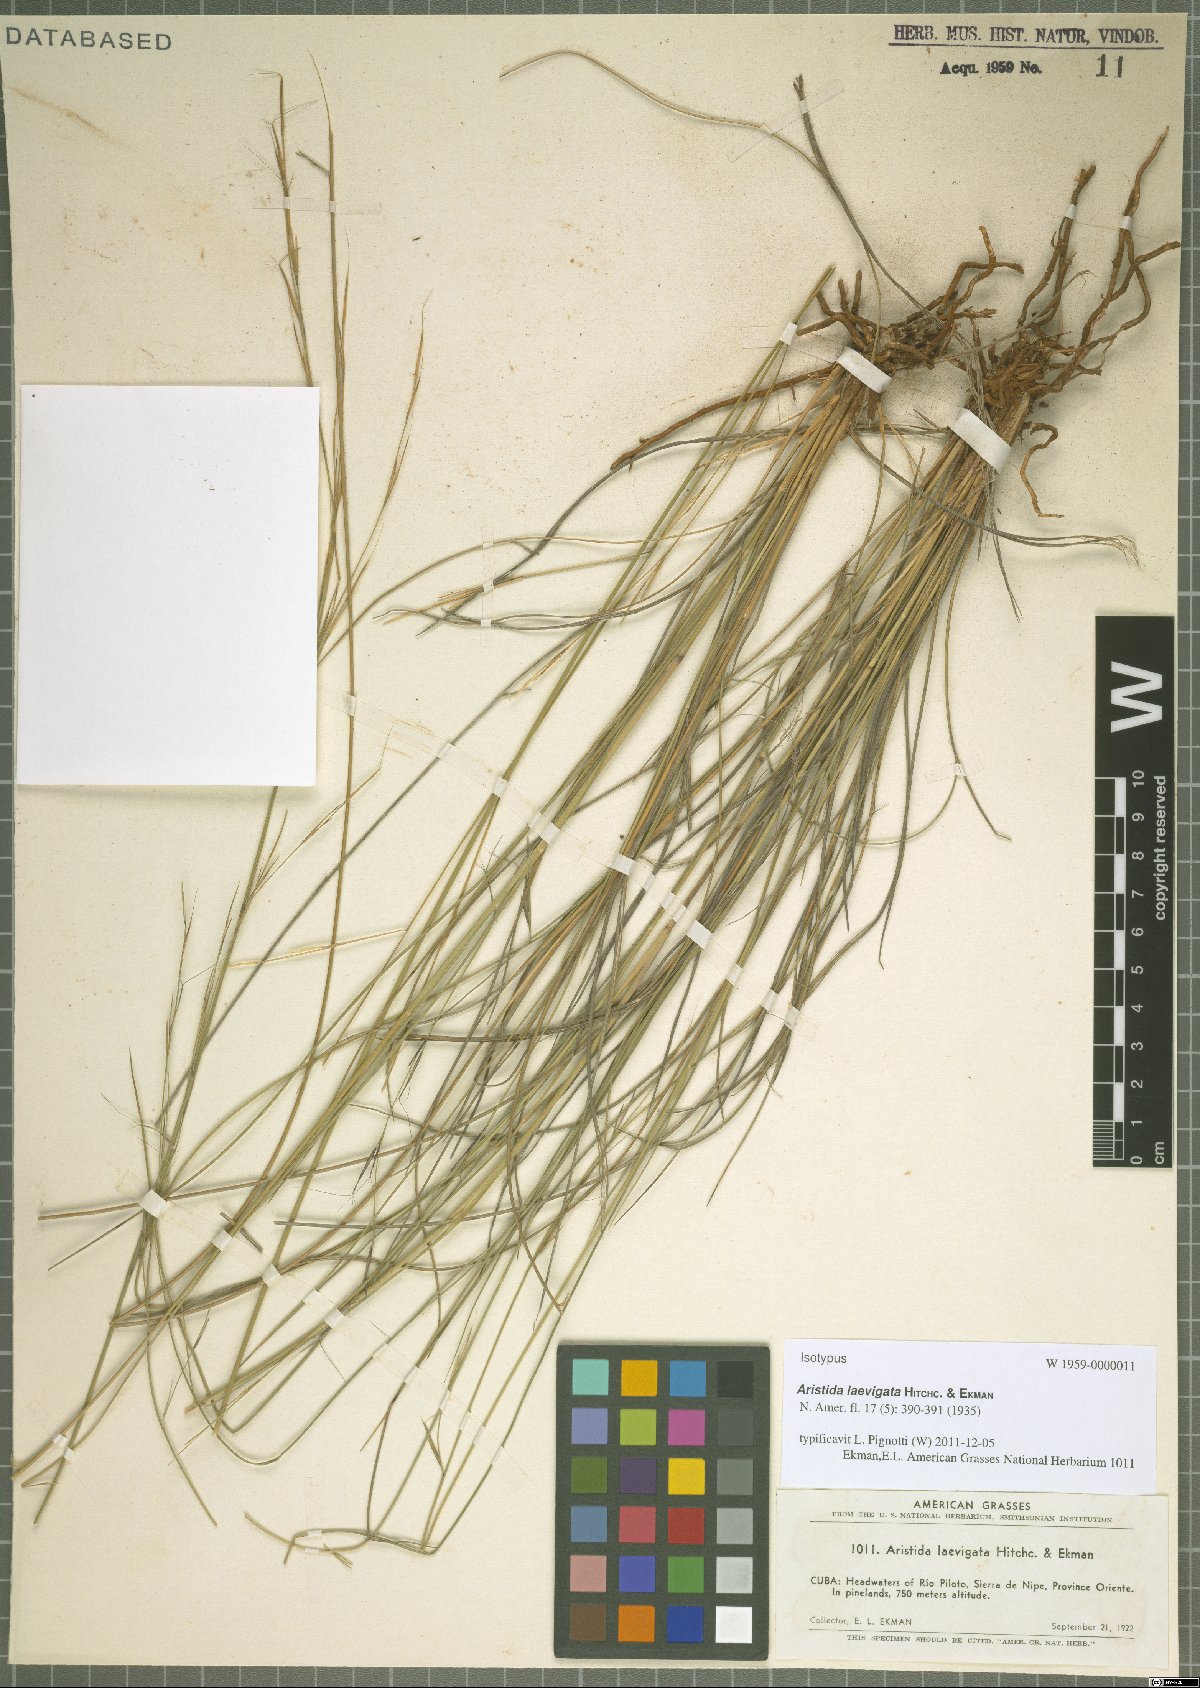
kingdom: Plantae
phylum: Tracheophyta
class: Liliopsida
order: Poales
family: Poaceae
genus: Aristida
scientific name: Aristida laevigata
